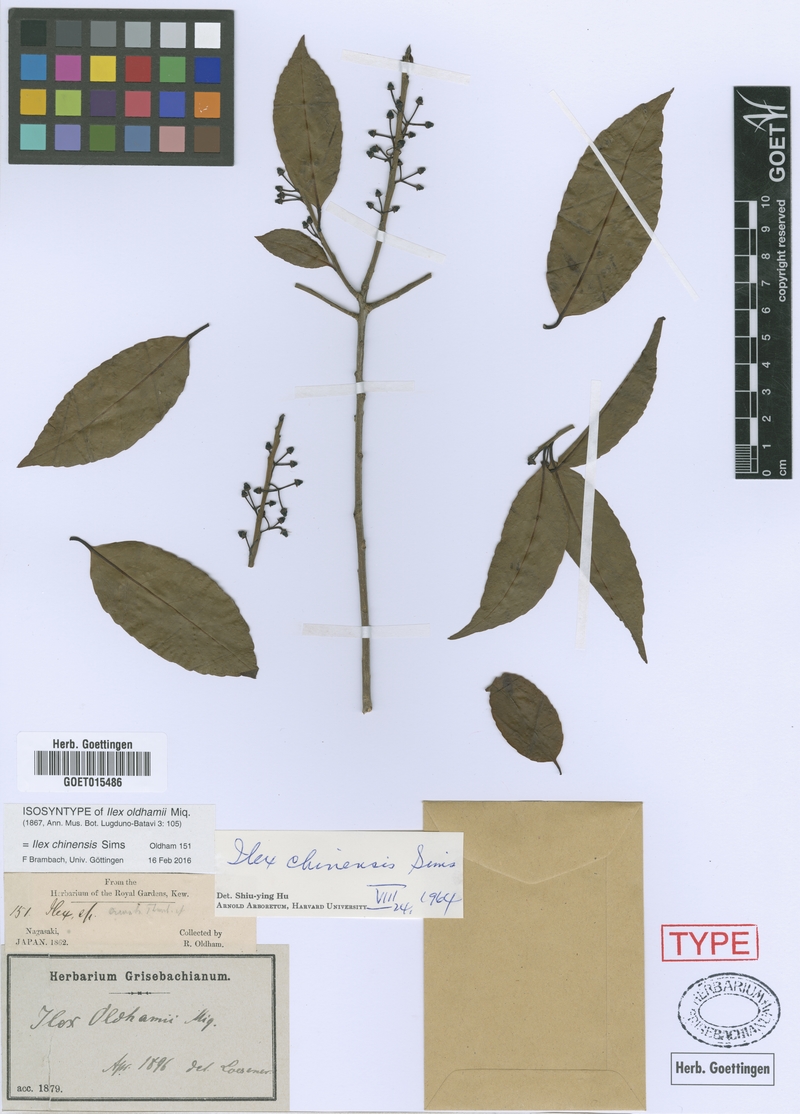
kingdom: Plantae
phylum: Tracheophyta
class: Magnoliopsida
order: Aquifoliales
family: Aquifoliaceae
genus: Ilex
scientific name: Ilex chinensis
